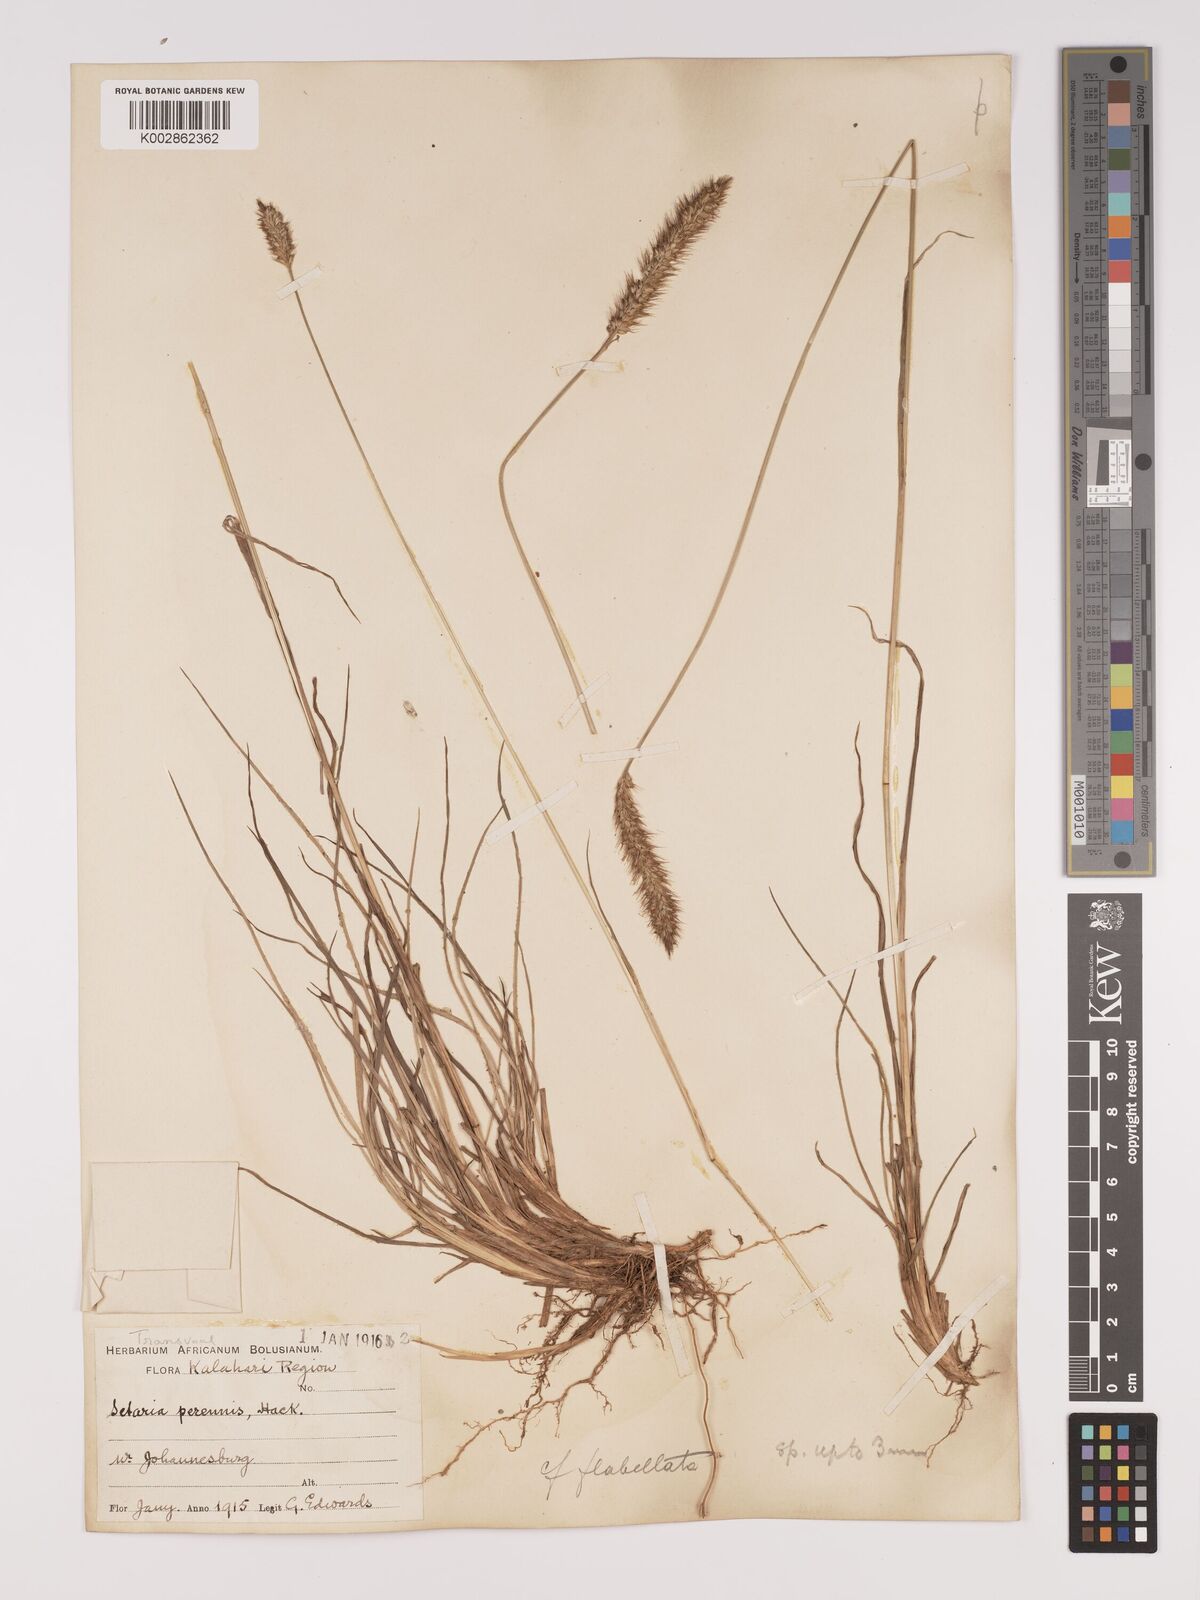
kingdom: Plantae
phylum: Tracheophyta
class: Liliopsida
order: Poales
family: Poaceae
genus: Setaria
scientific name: Setaria sphacelata
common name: African bristlegrass
